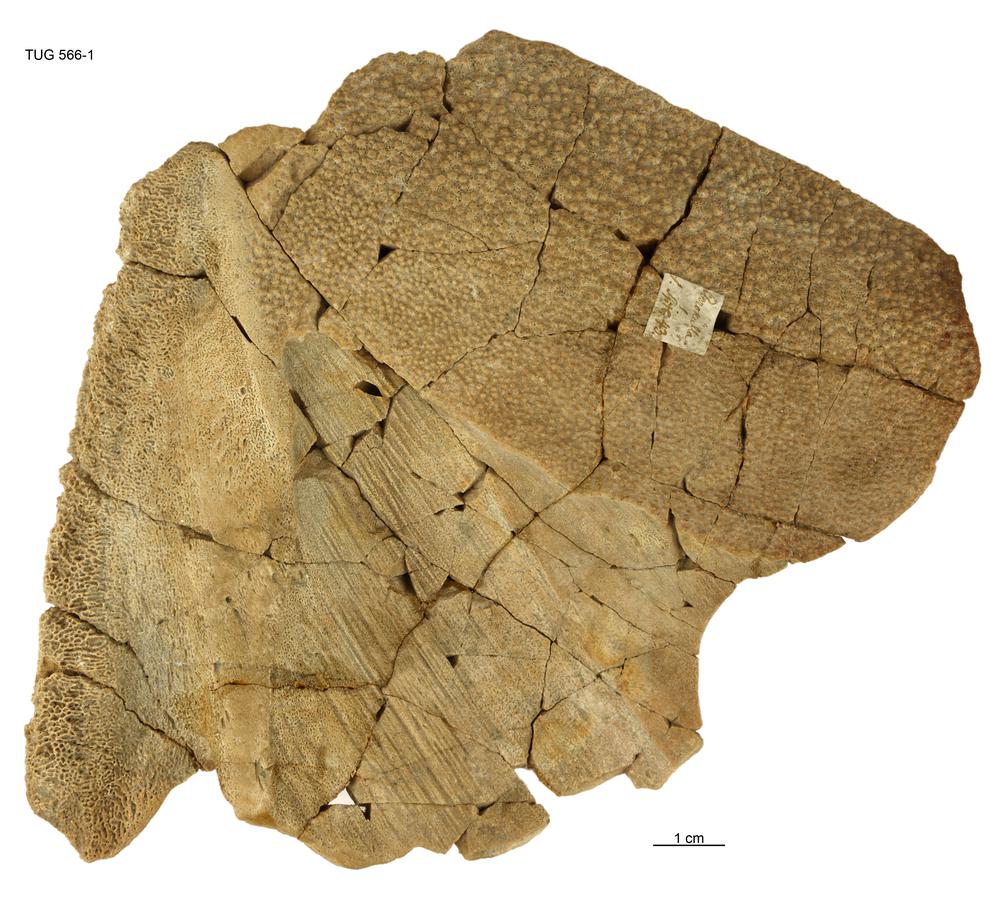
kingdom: Animalia
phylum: Chordata
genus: Homosteus
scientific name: Homosteus sulcatus
